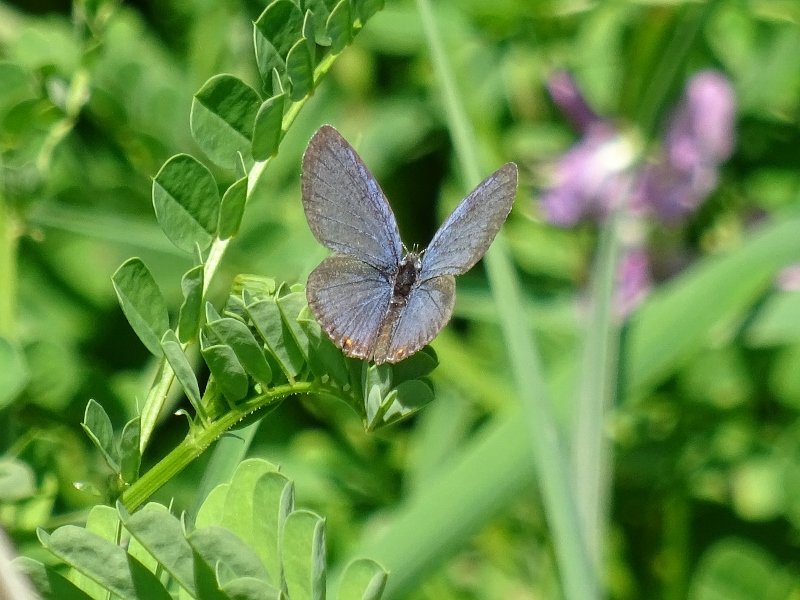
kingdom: Animalia
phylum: Arthropoda
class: Insecta
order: Lepidoptera
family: Lycaenidae
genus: Elkalyce
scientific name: Elkalyce comyntas
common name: Eastern Tailed-Blue
